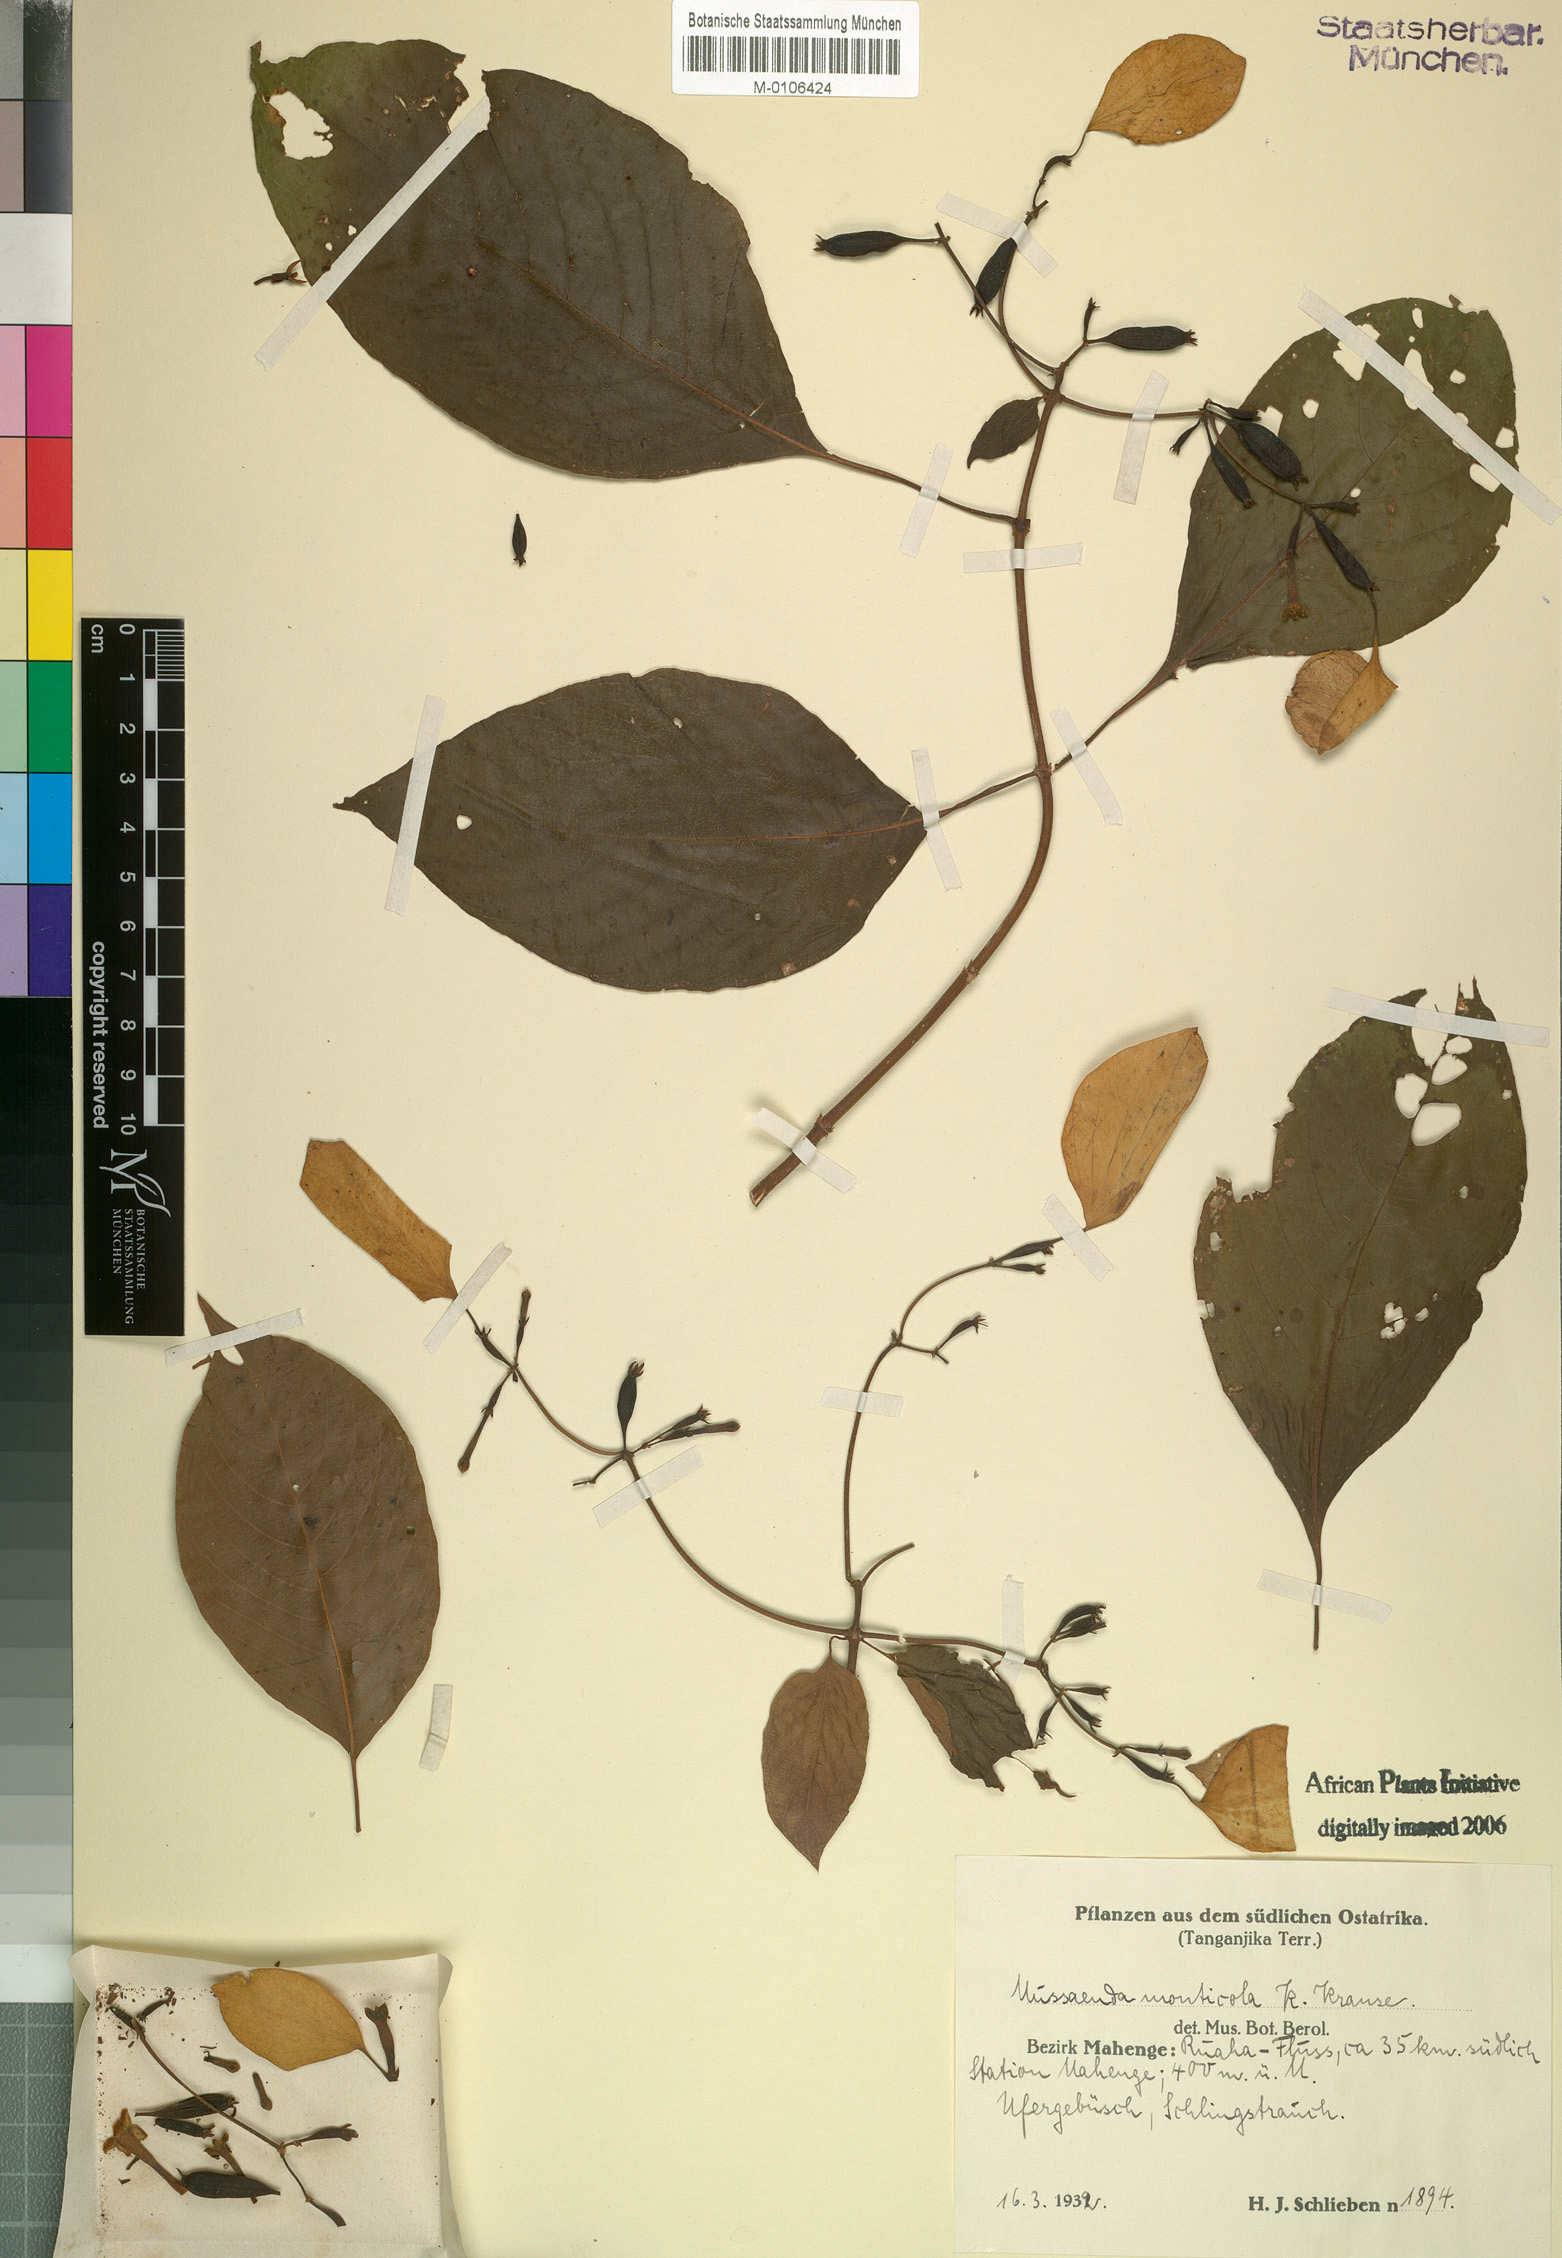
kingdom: Plantae
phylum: Tracheophyta
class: Magnoliopsida
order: Gentianales
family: Rubiaceae
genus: Mussaenda
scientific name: Mussaenda monticola
